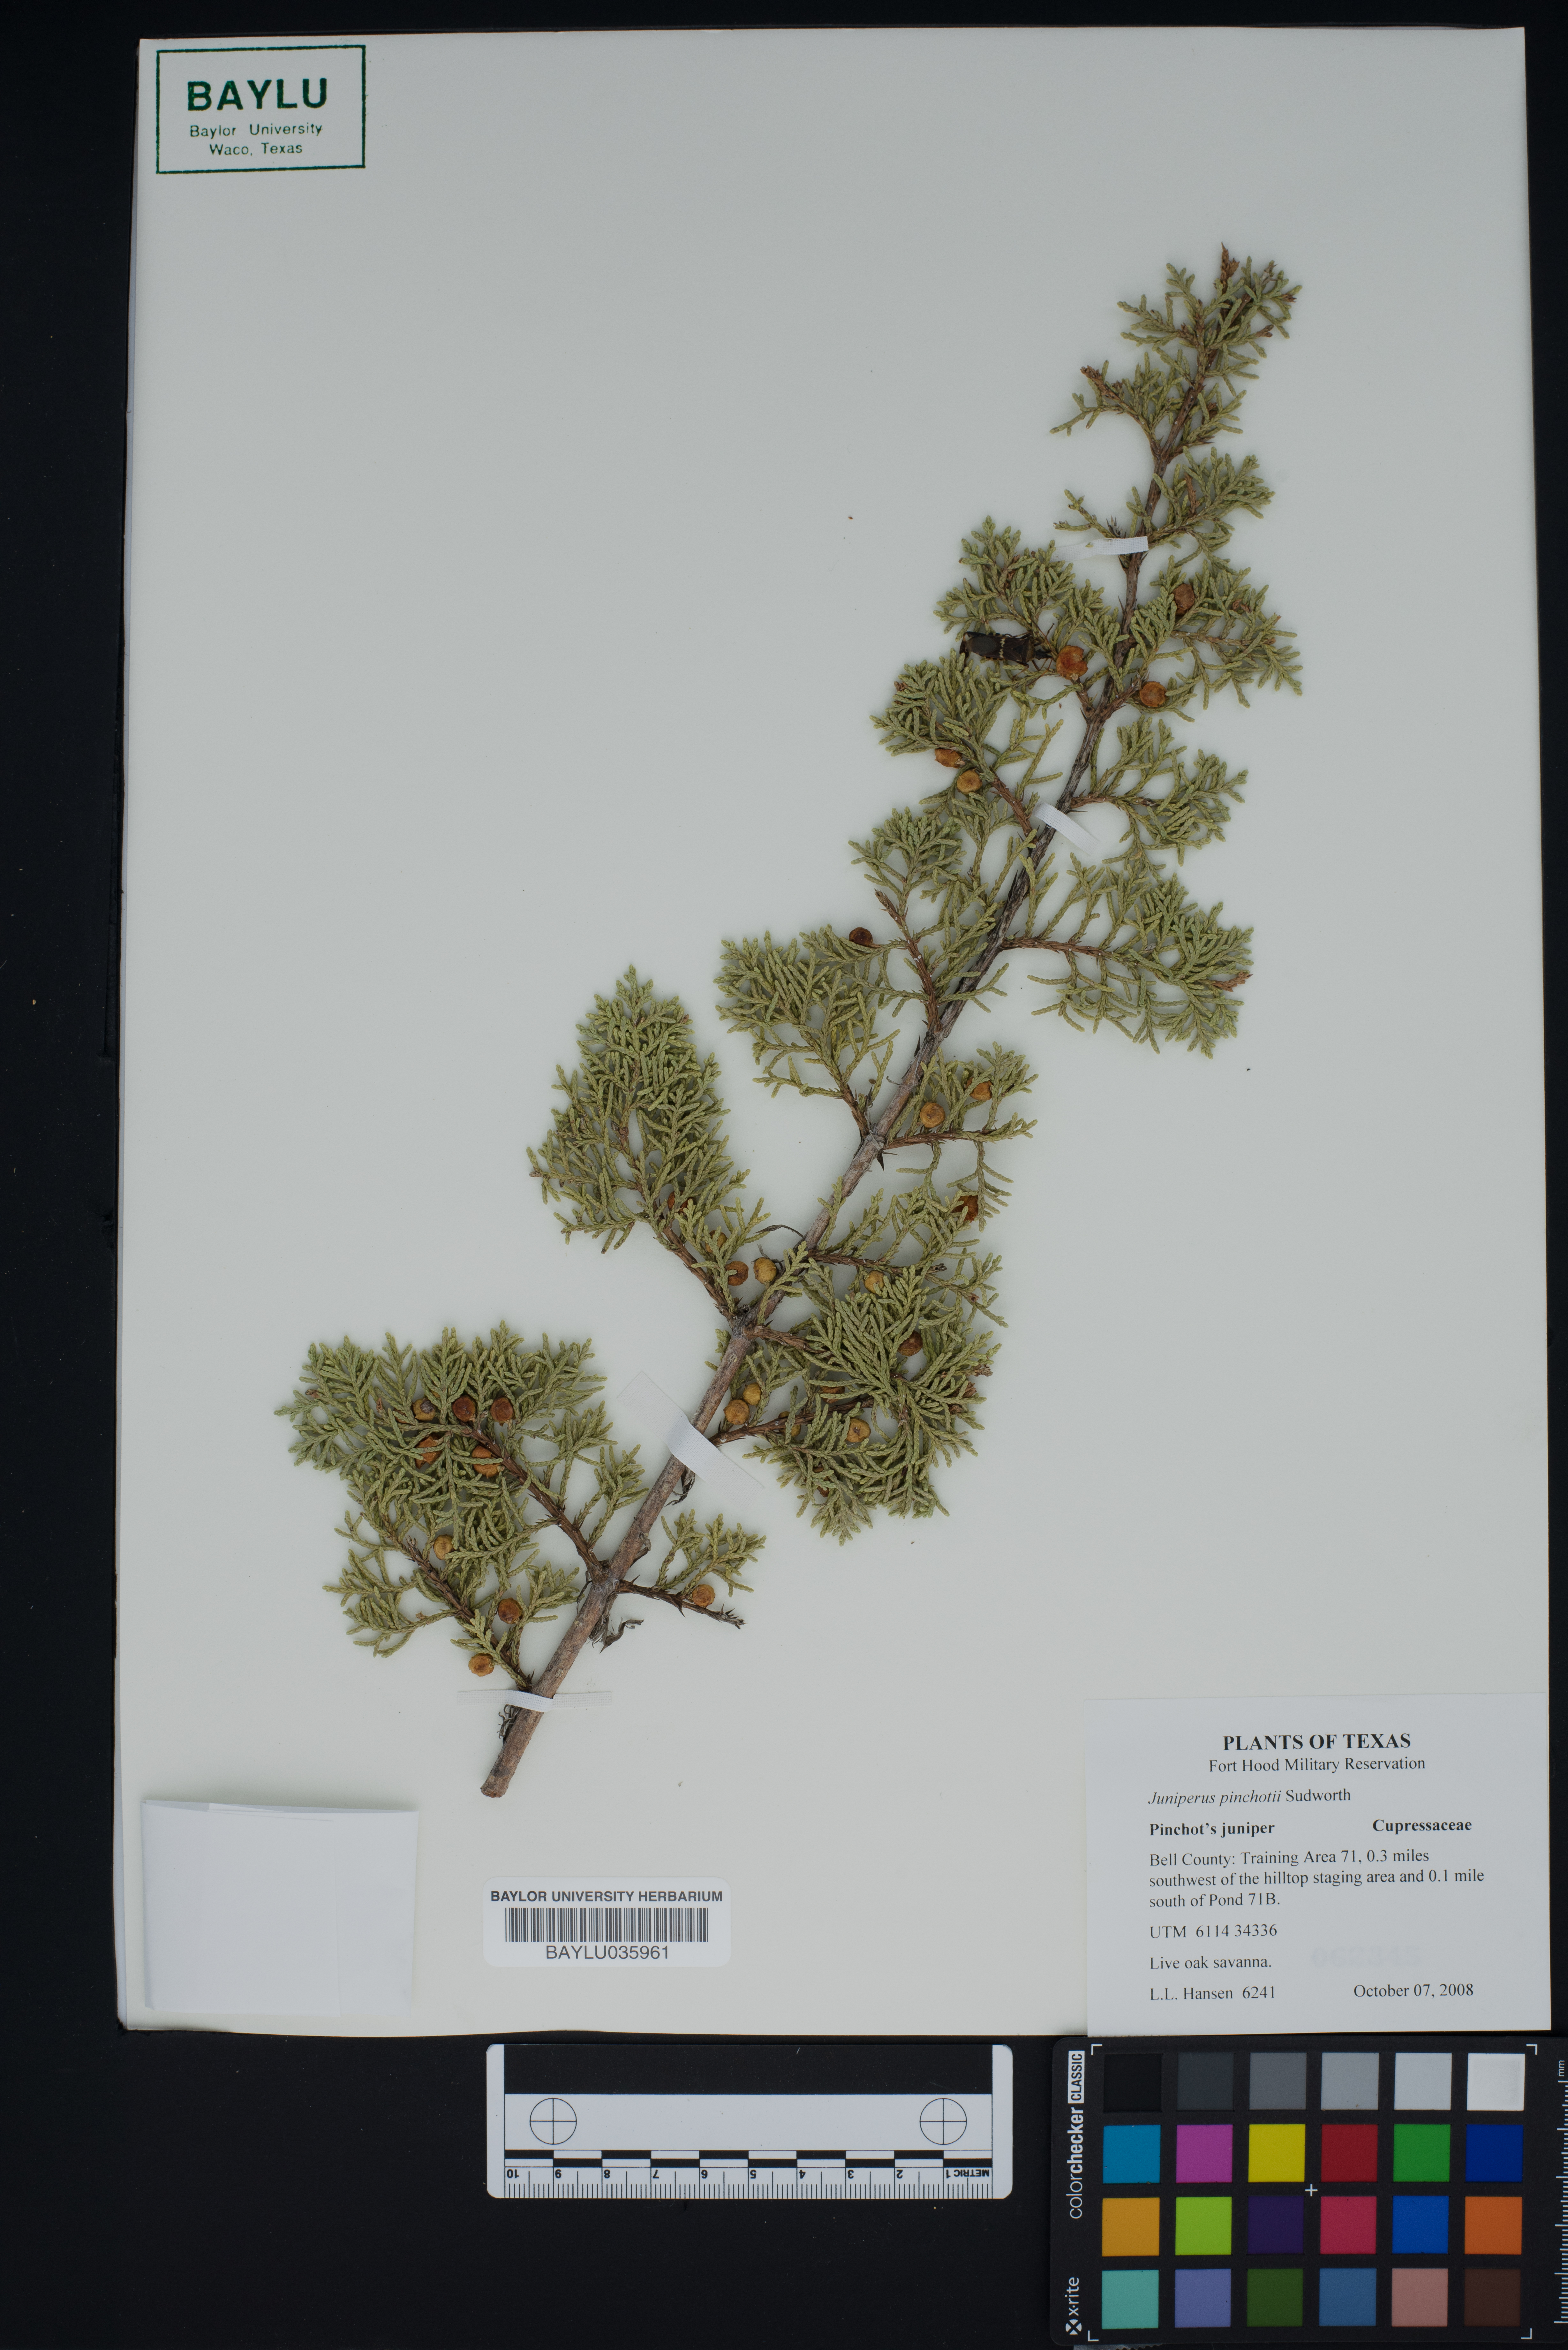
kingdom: Plantae
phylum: Tracheophyta
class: Pinopsida
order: Pinales
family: Cupressaceae
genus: Juniperus
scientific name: Juniperus pinchotii
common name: Pinchot juniper
